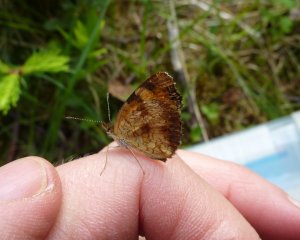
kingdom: Animalia
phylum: Arthropoda
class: Insecta
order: Lepidoptera
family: Nymphalidae
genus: Phyciodes
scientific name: Phyciodes tharos
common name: Northern Crescent
